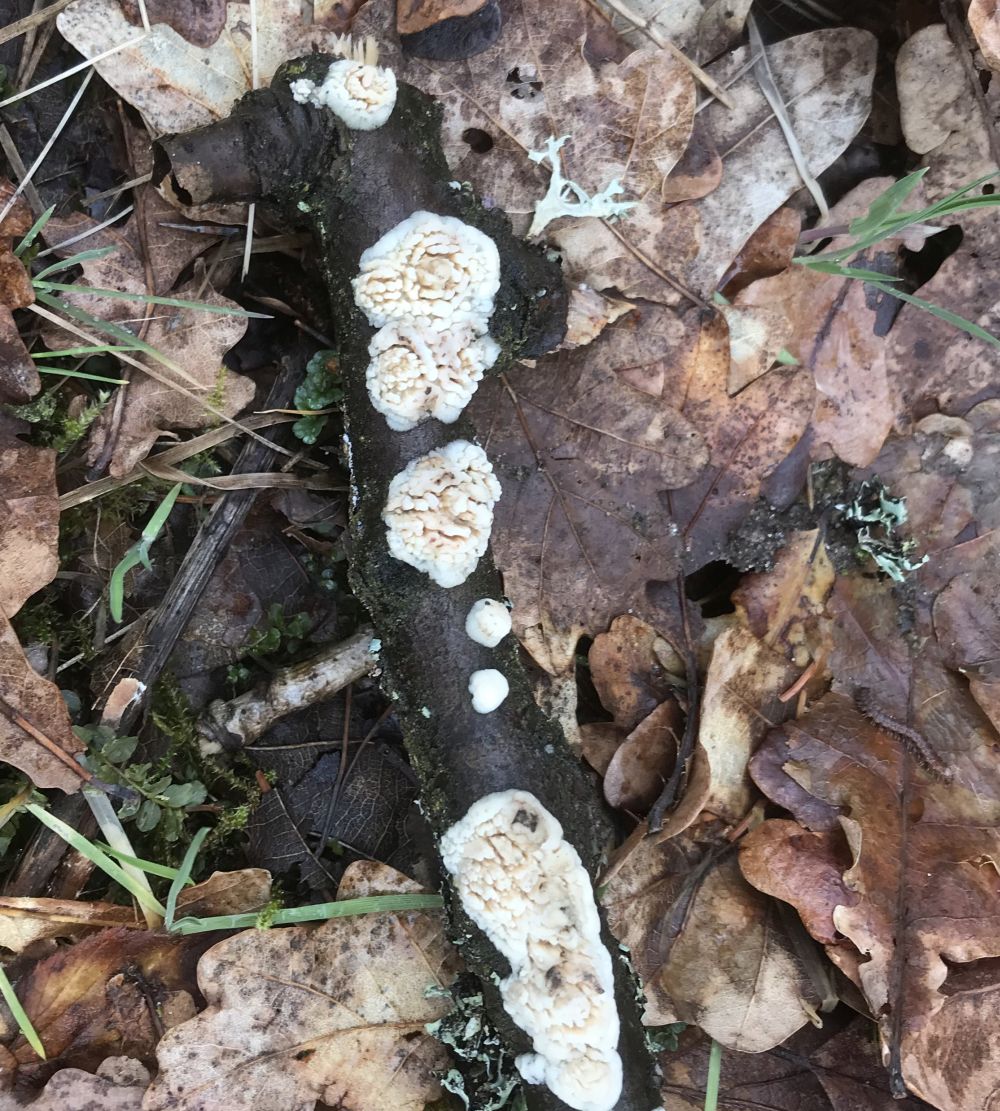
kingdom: Fungi
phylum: Basidiomycota
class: Agaricomycetes
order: Hymenochaetales
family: Schizoporaceae
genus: Xylodon
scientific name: Xylodon radula
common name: grovtandet kalkskind
